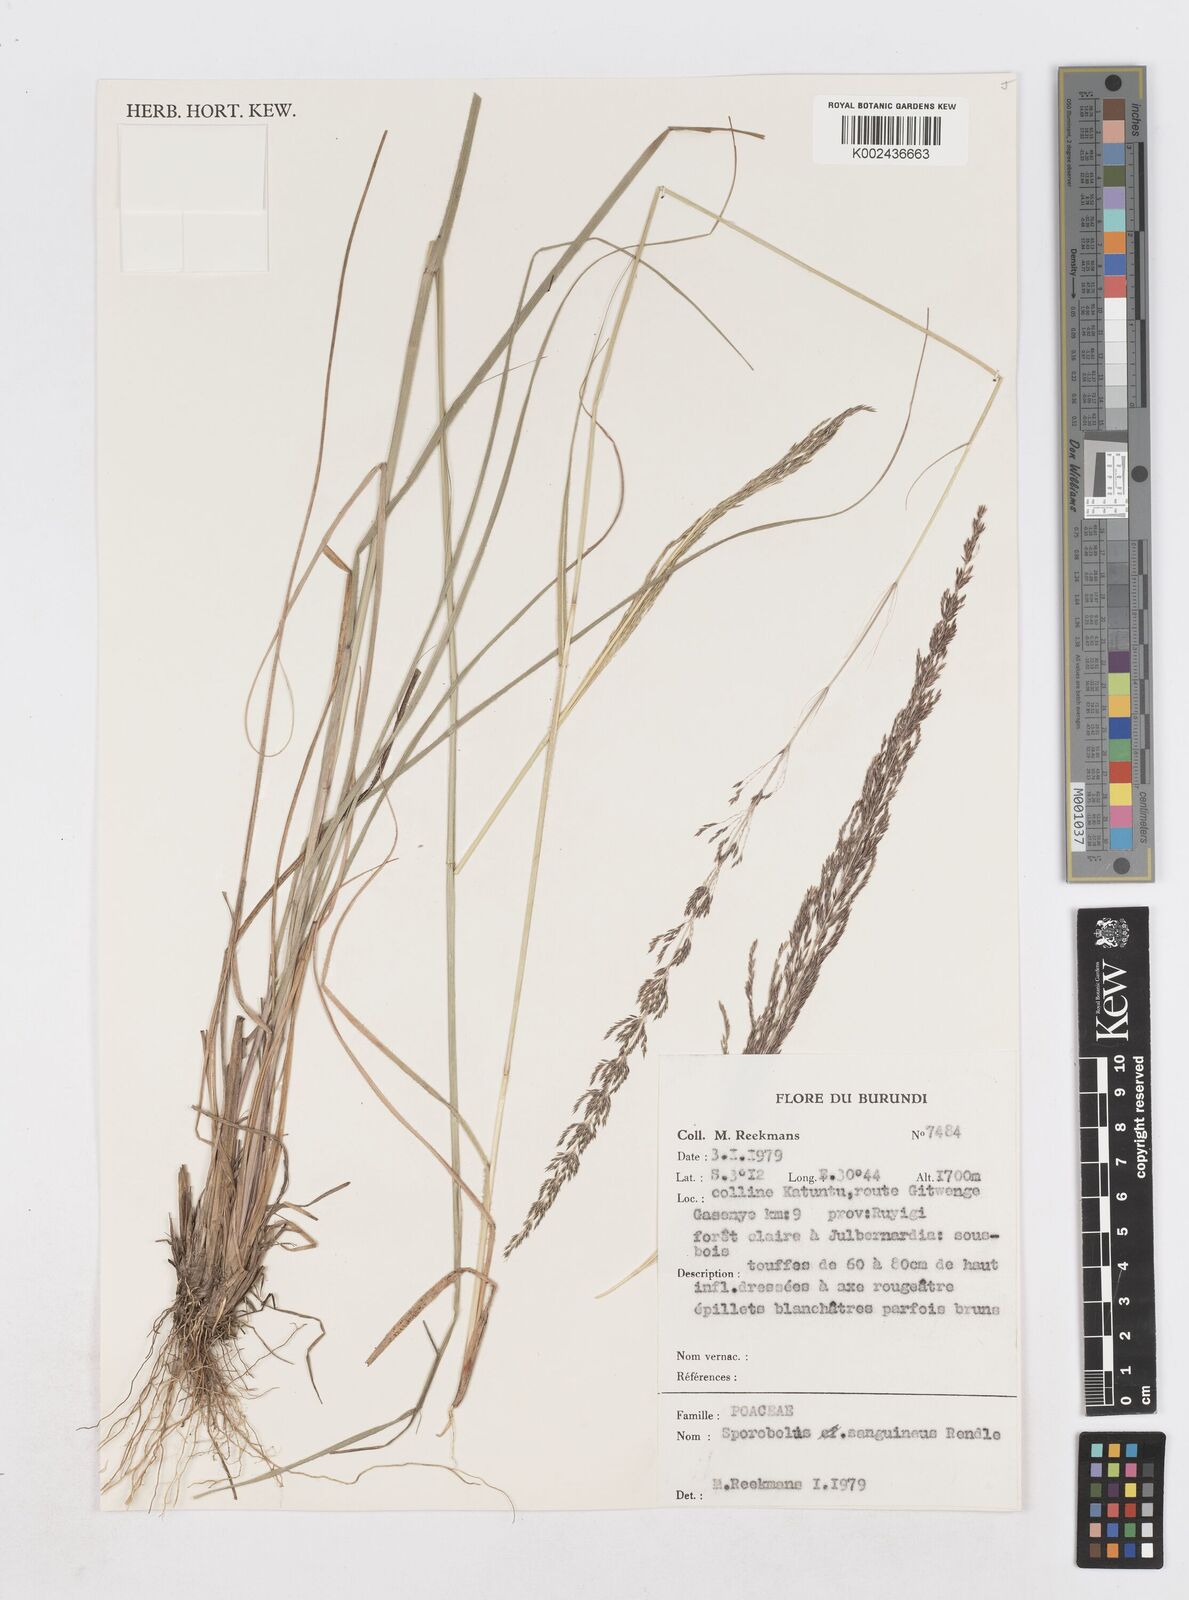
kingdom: Plantae
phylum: Tracheophyta
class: Liliopsida
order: Poales
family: Poaceae
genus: Sporobolus
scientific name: Sporobolus sanguineus
